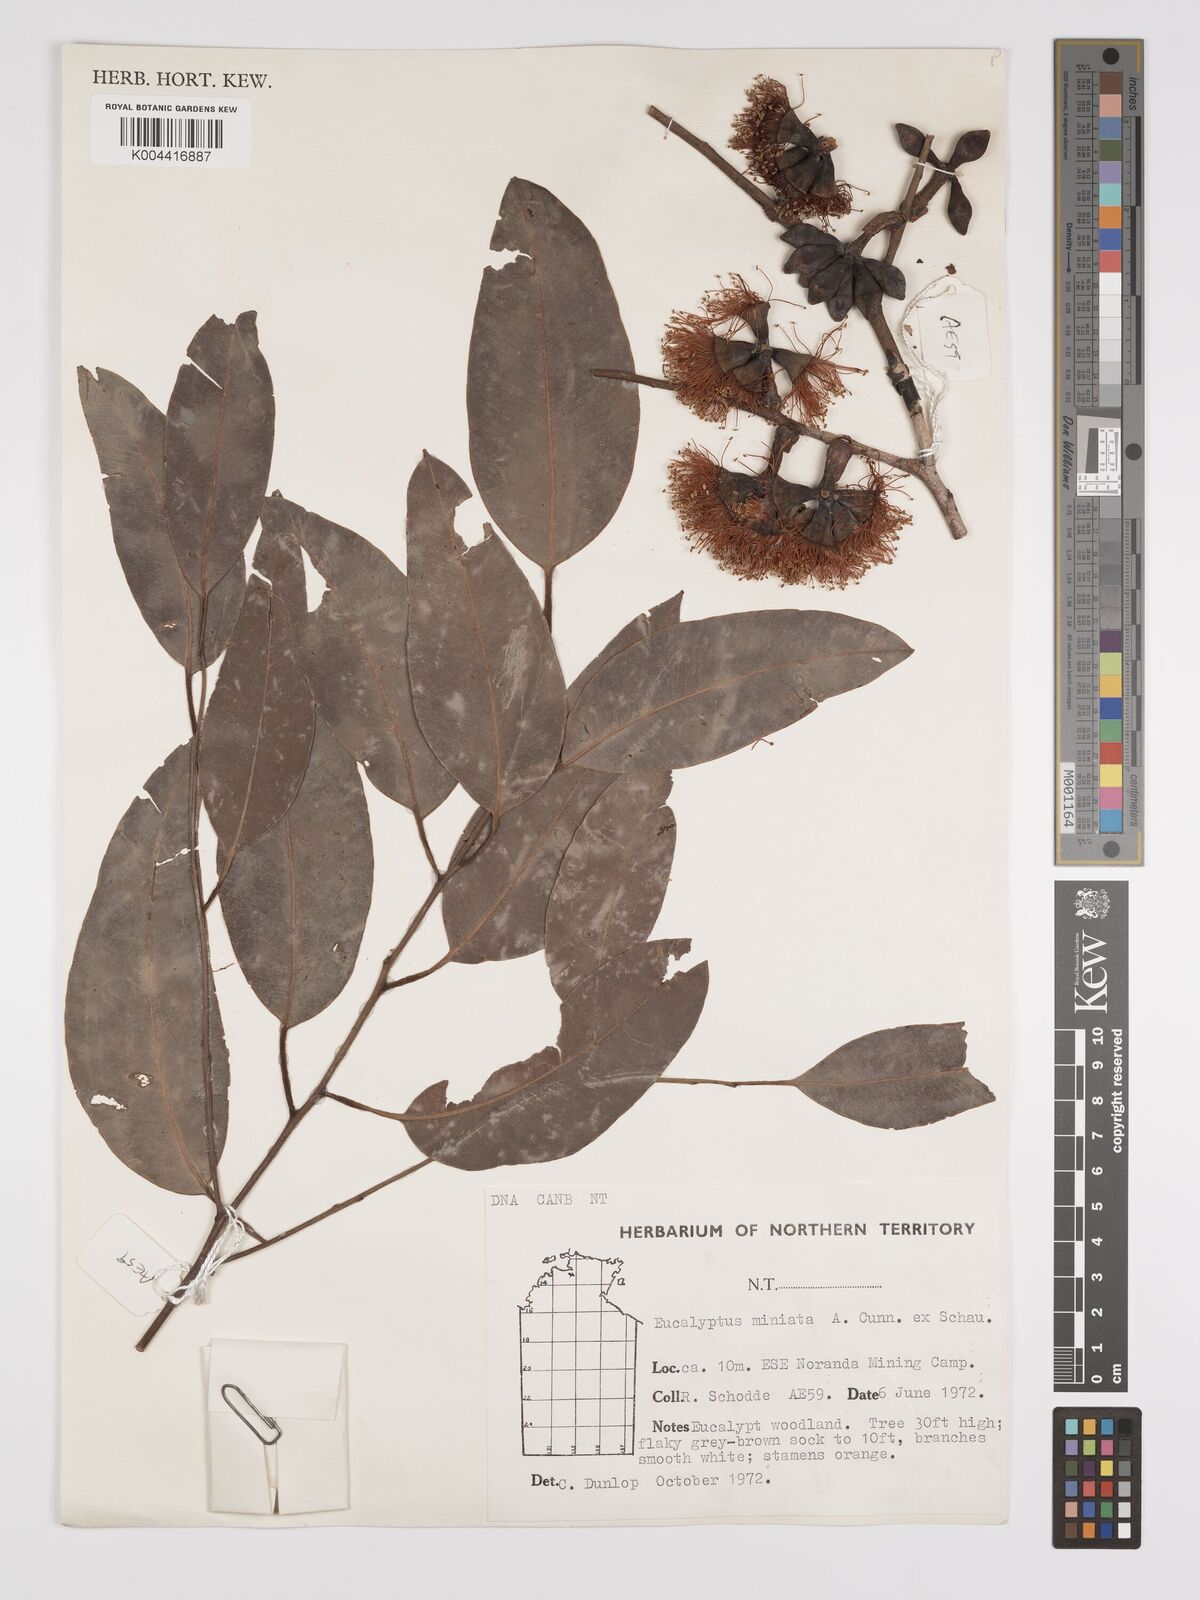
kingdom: Plantae
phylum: Tracheophyta
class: Magnoliopsida
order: Myrtales
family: Myrtaceae
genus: Eucalyptus
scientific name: Eucalyptus miniata
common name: Darwin-woollybutt
